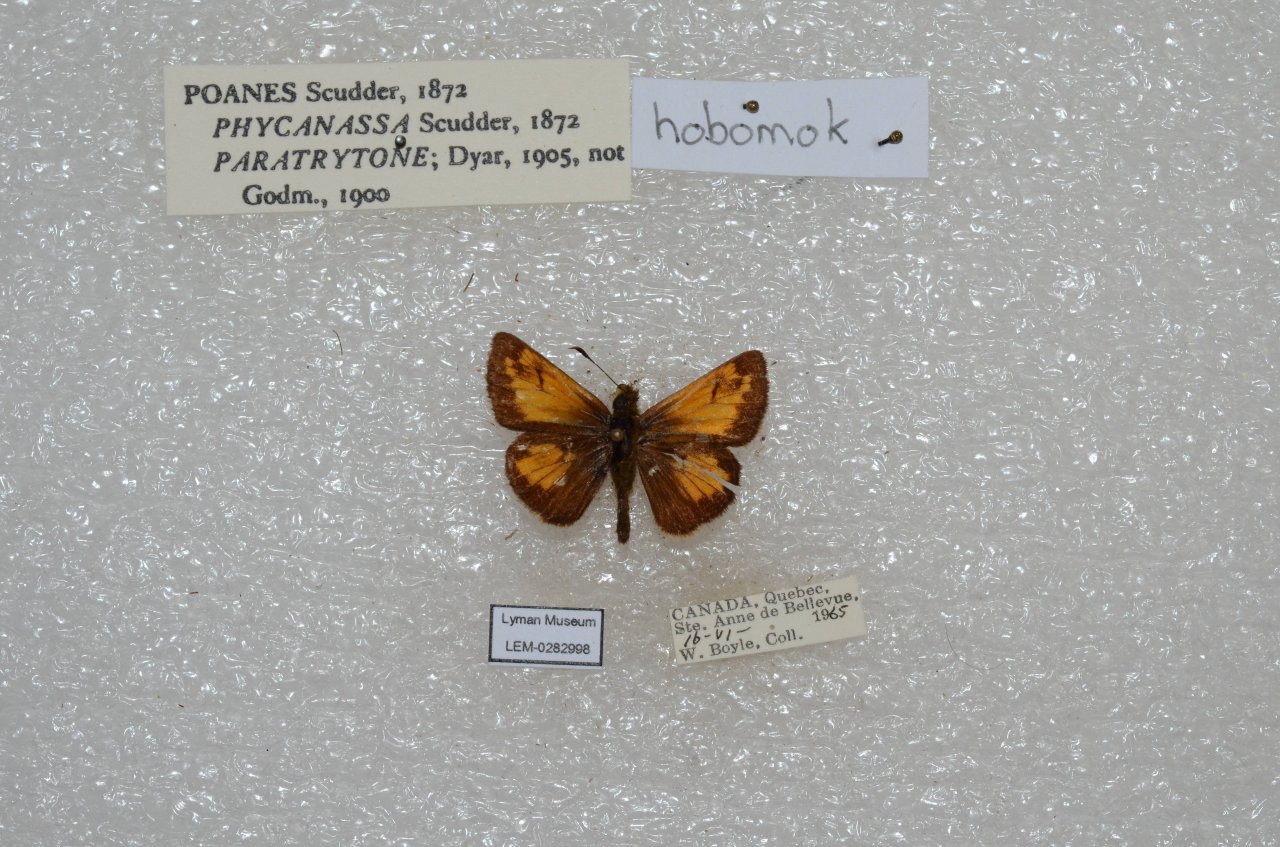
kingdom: Animalia
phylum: Arthropoda
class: Insecta
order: Lepidoptera
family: Hesperiidae
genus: Lon
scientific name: Lon hobomok
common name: Hobomok Skipper
